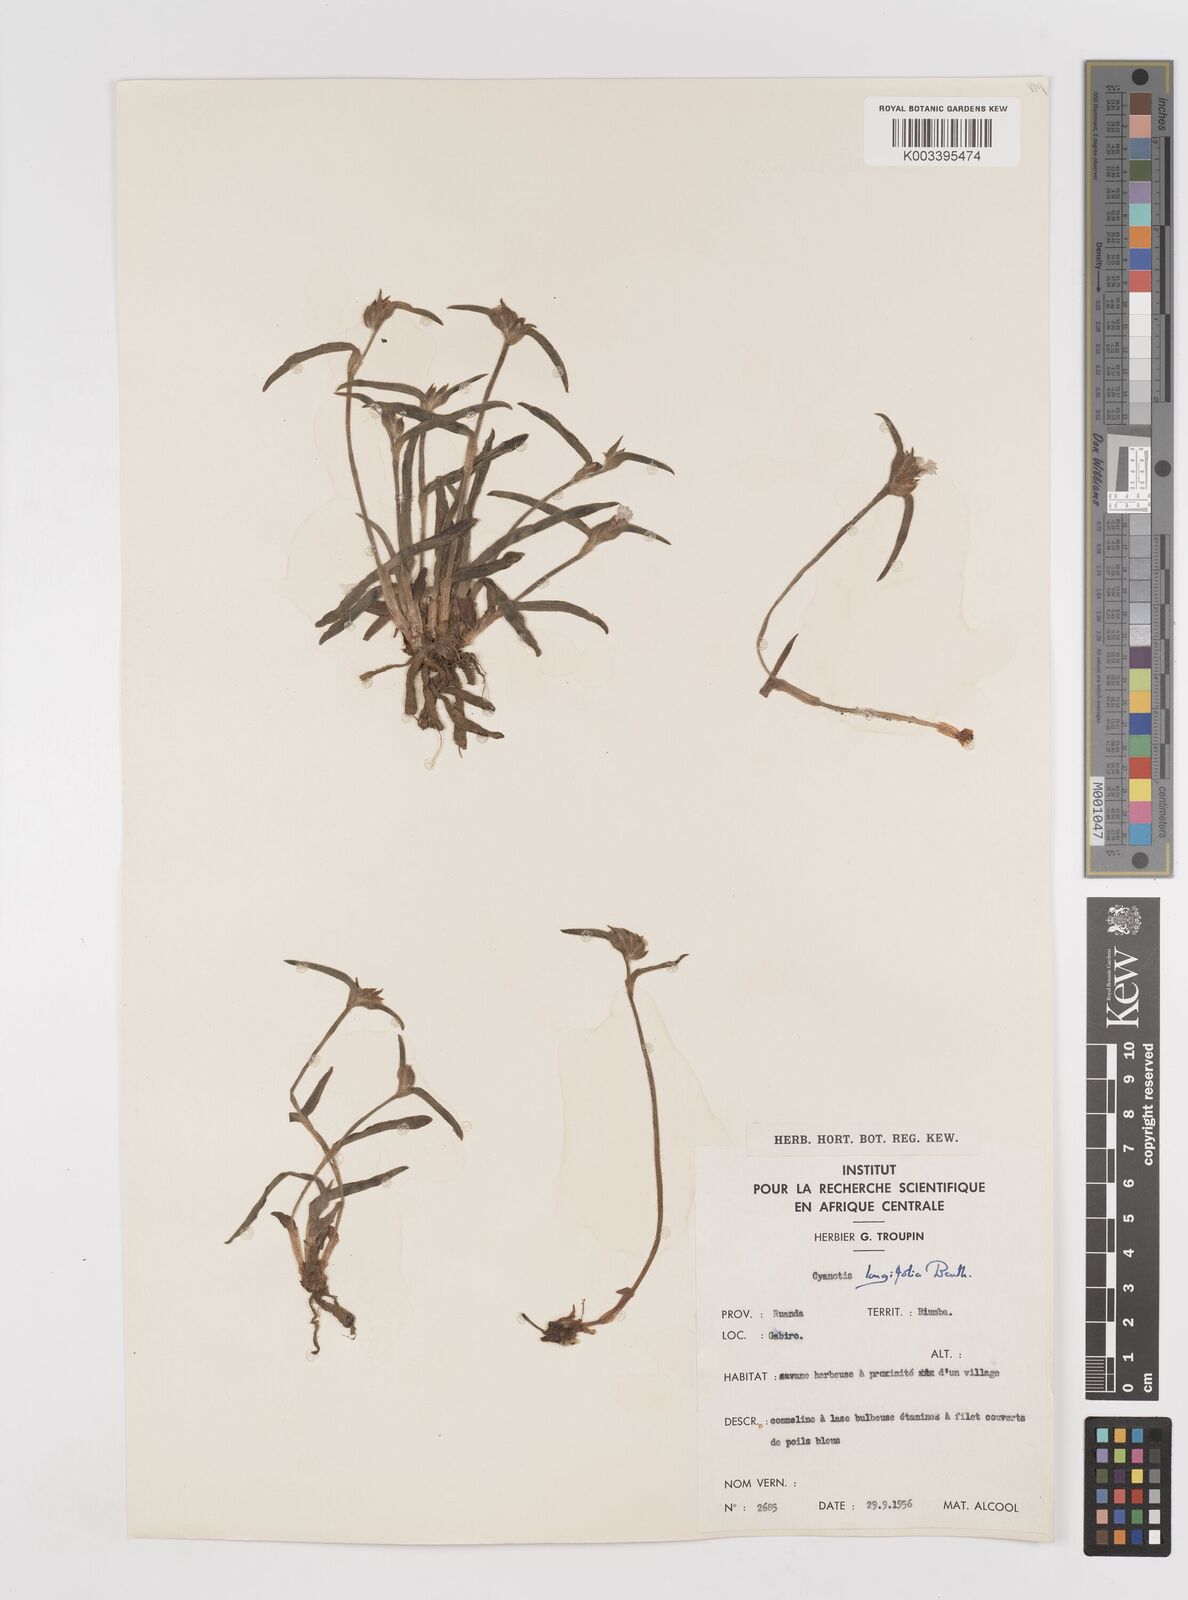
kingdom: Plantae
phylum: Tracheophyta
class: Liliopsida
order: Commelinales
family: Commelinaceae
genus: Cyanotis
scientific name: Cyanotis longifolia
